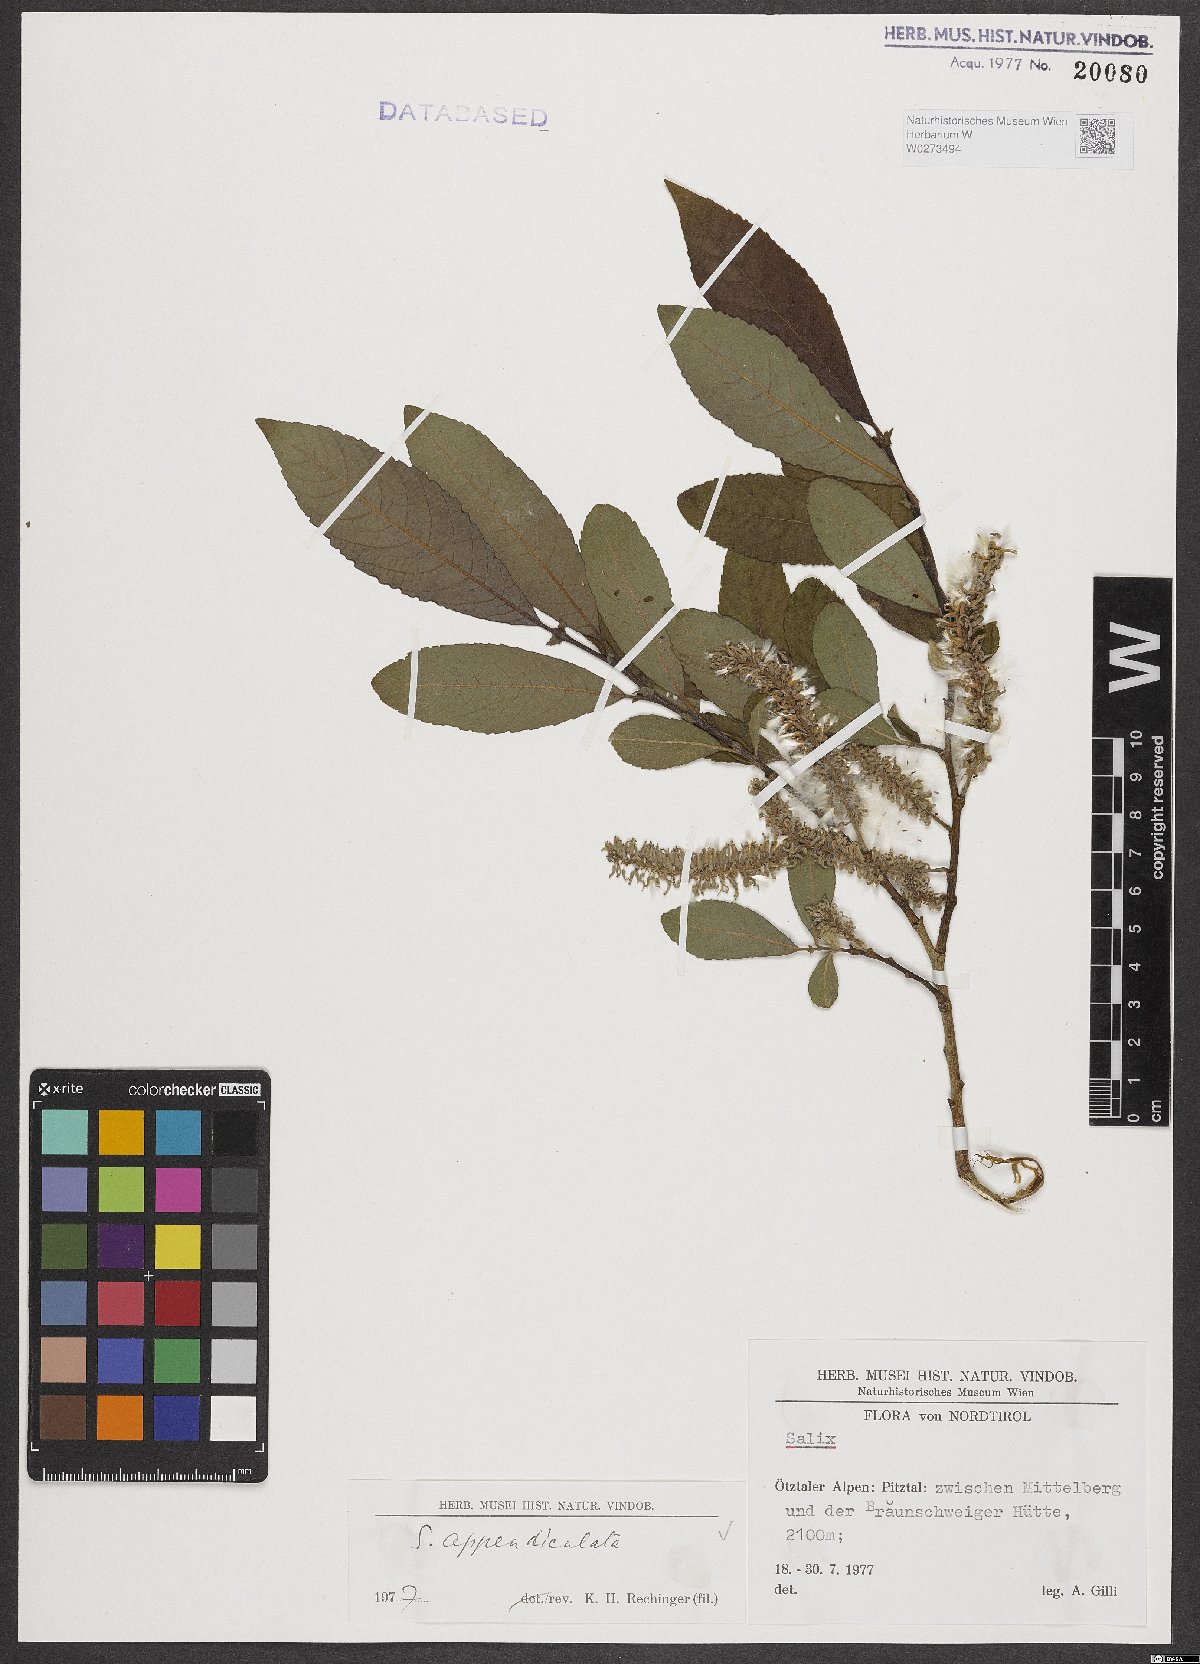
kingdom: Plantae
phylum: Tracheophyta
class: Magnoliopsida
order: Malpighiales
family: Salicaceae
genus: Salix
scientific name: Salix appendiculata
